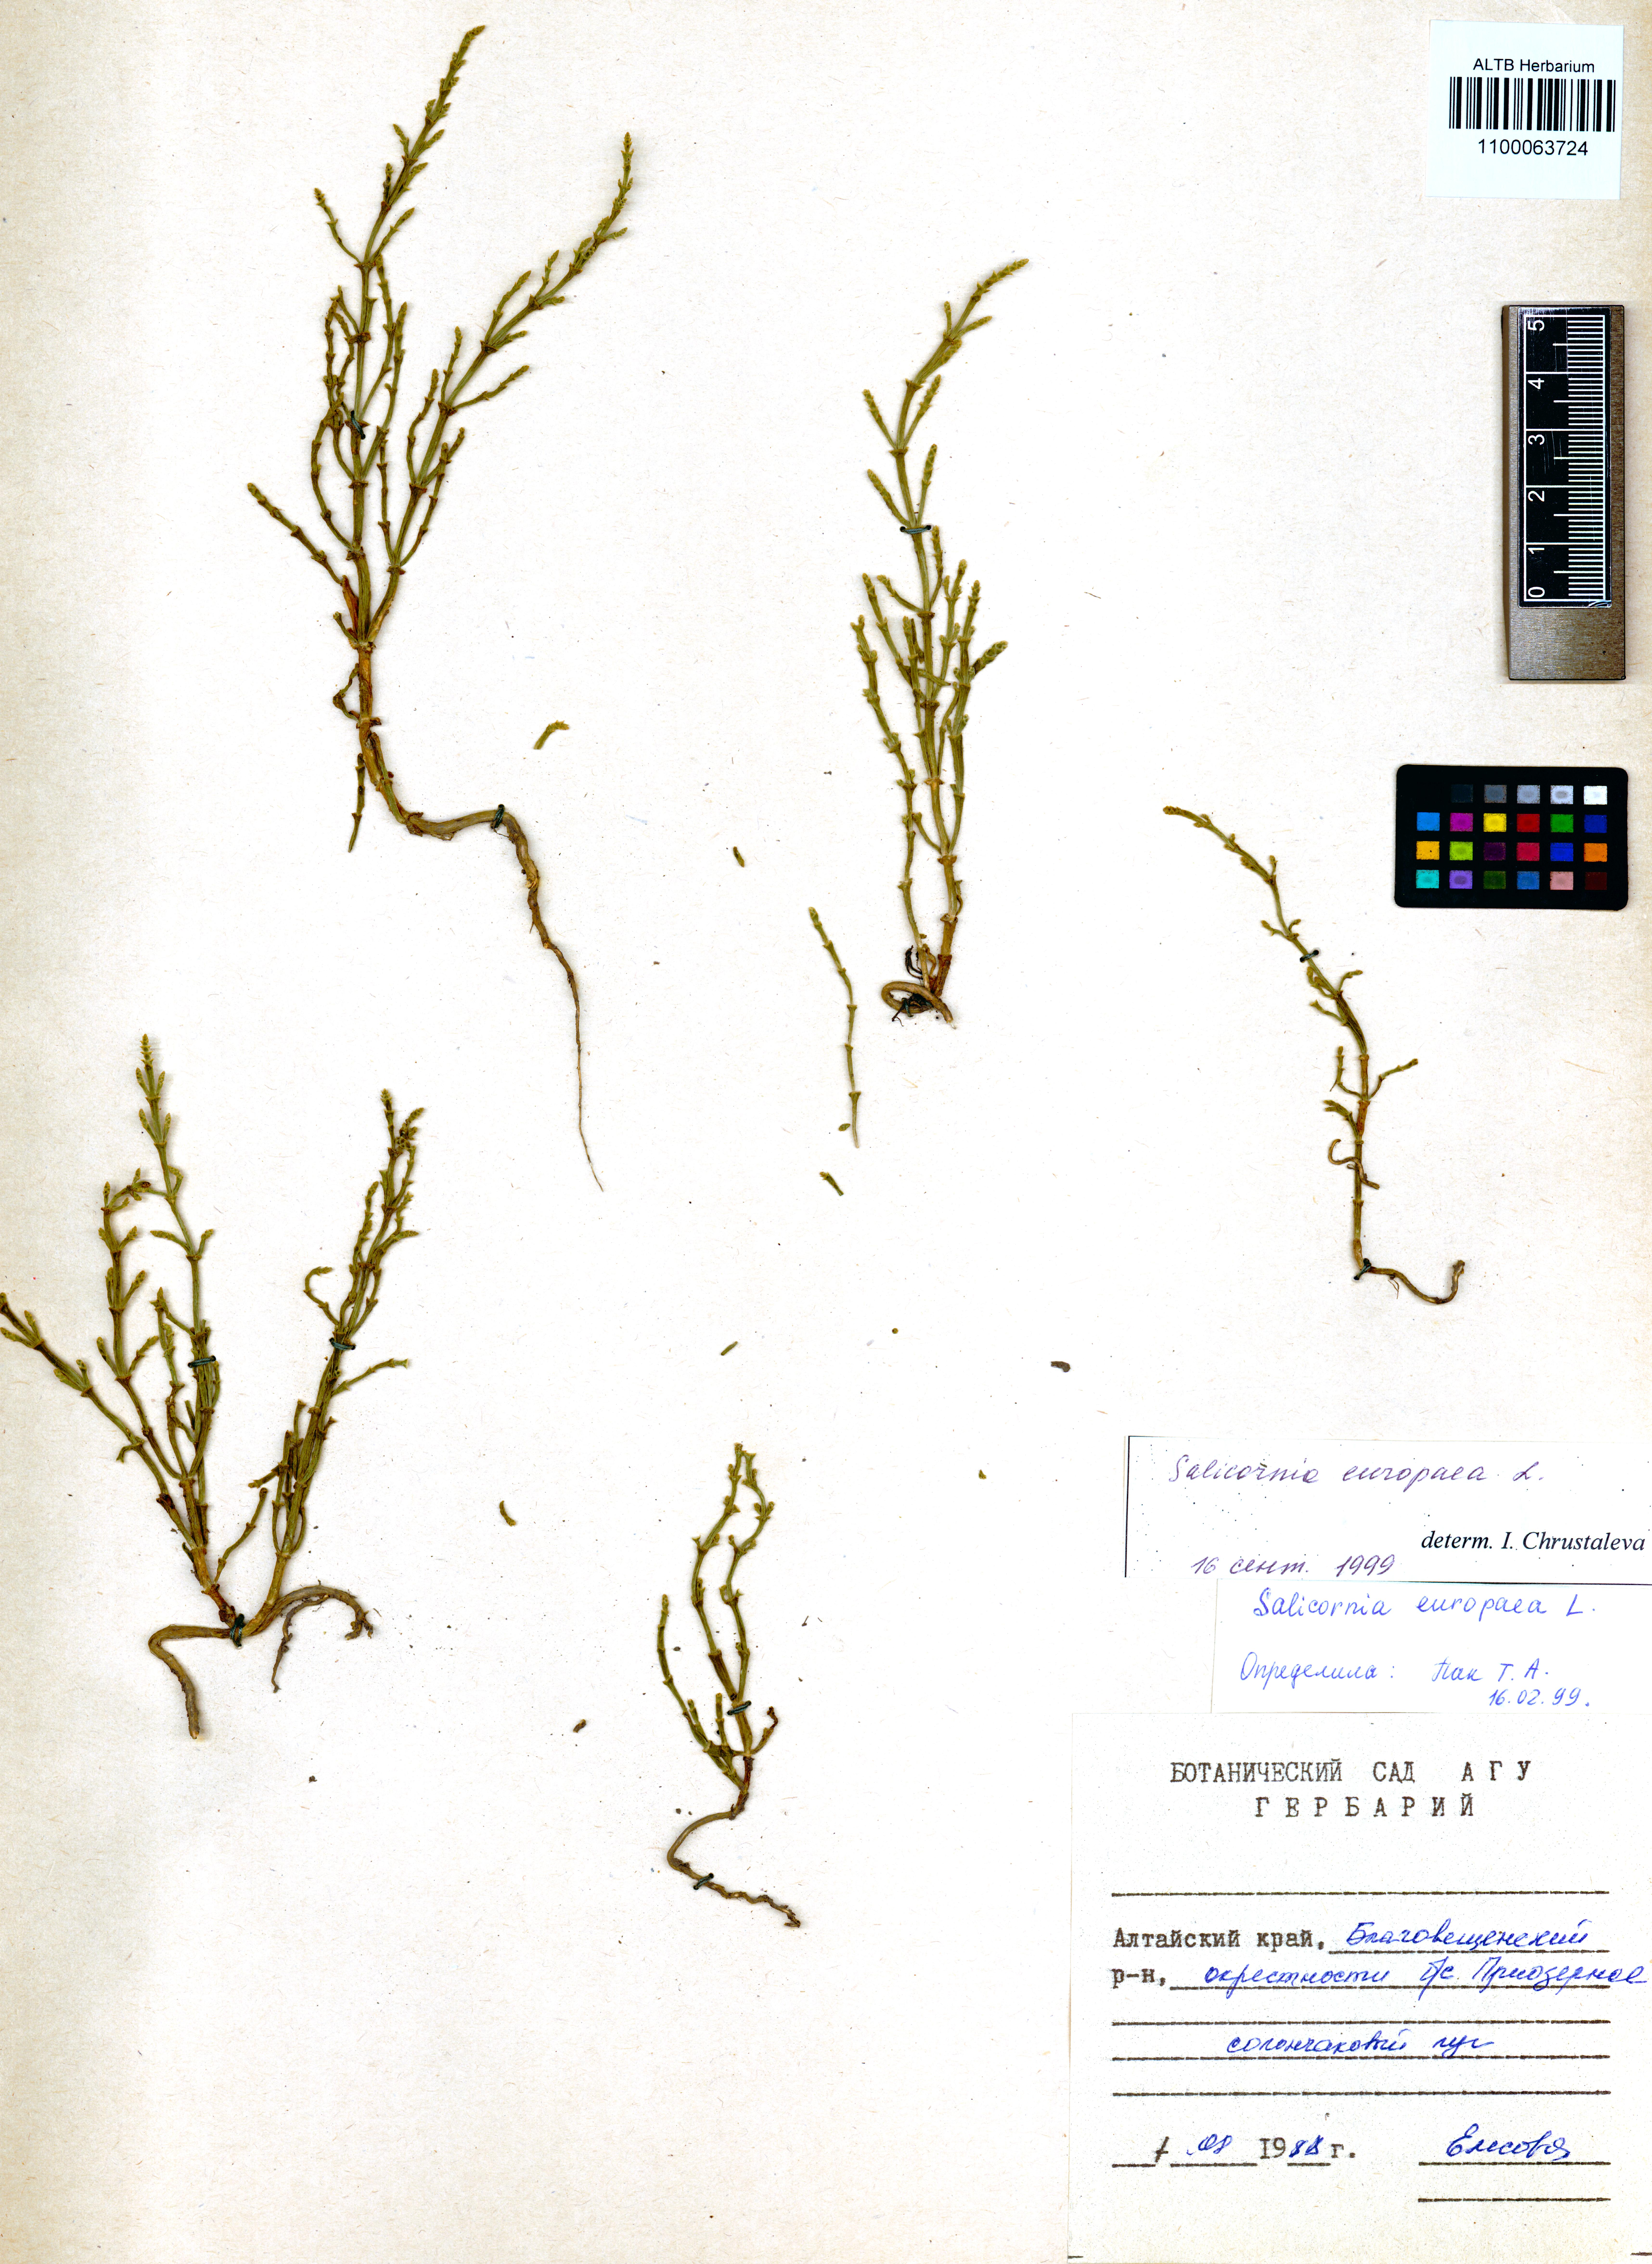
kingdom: Plantae
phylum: Tracheophyta
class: Magnoliopsida
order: Caryophyllales
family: Amaranthaceae
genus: Salicornia
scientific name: Salicornia europaea
